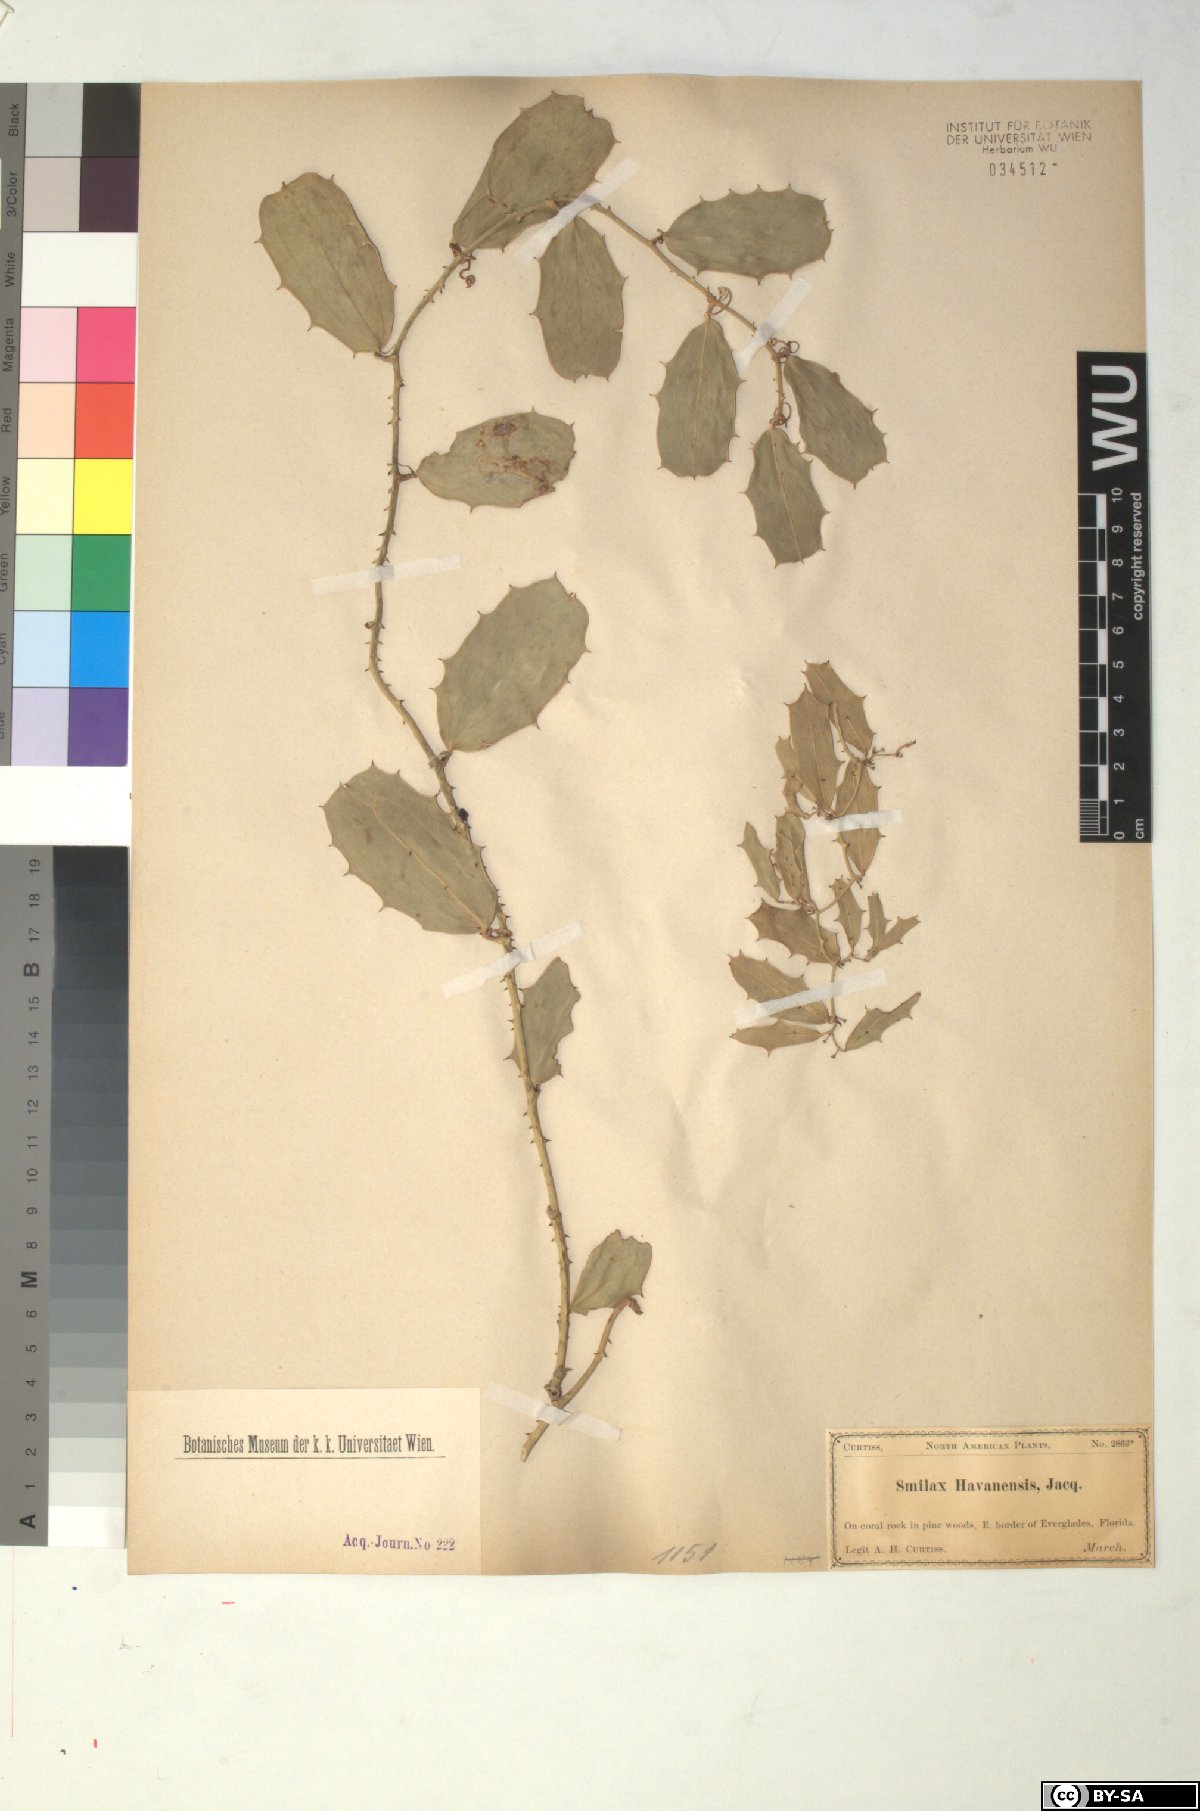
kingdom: Plantae
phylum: Tracheophyta
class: Liliopsida
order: Liliales
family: Smilacaceae
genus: Smilax
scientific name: Smilax havanensis
